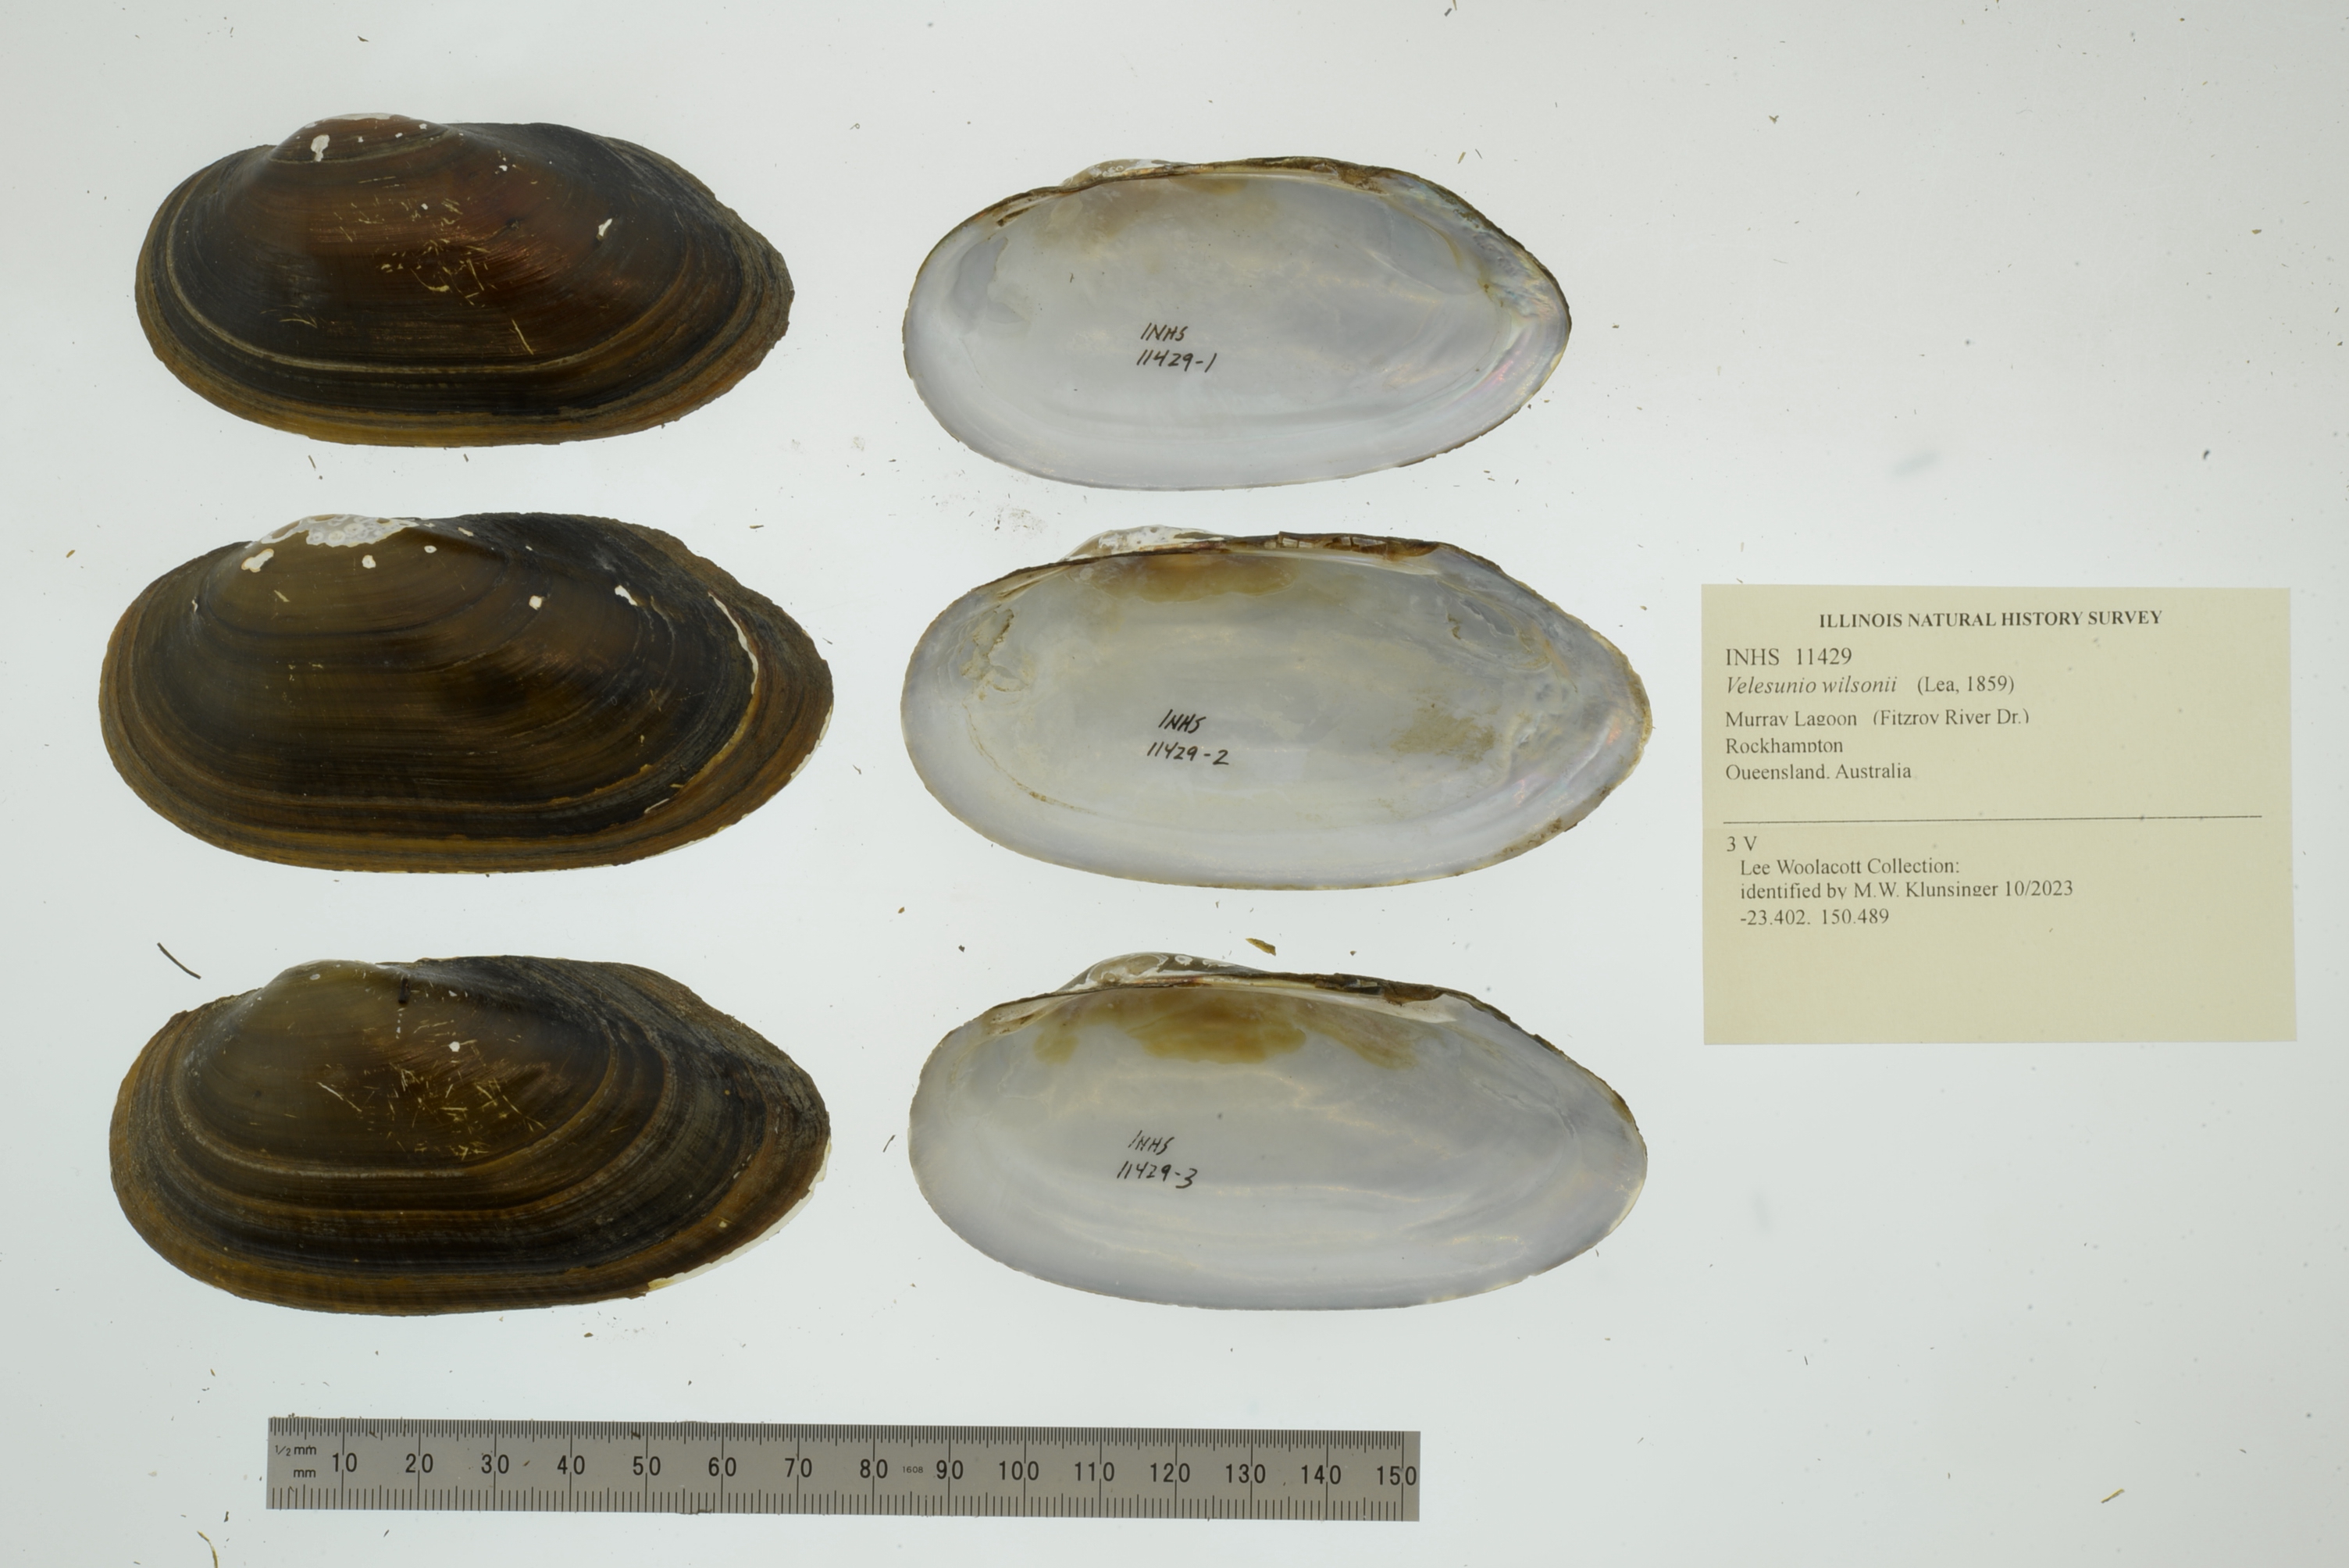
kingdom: Animalia
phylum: Mollusca
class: Bivalvia
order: Unionida
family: Hyriidae
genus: Velesunio
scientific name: Velesunio wilsonii
